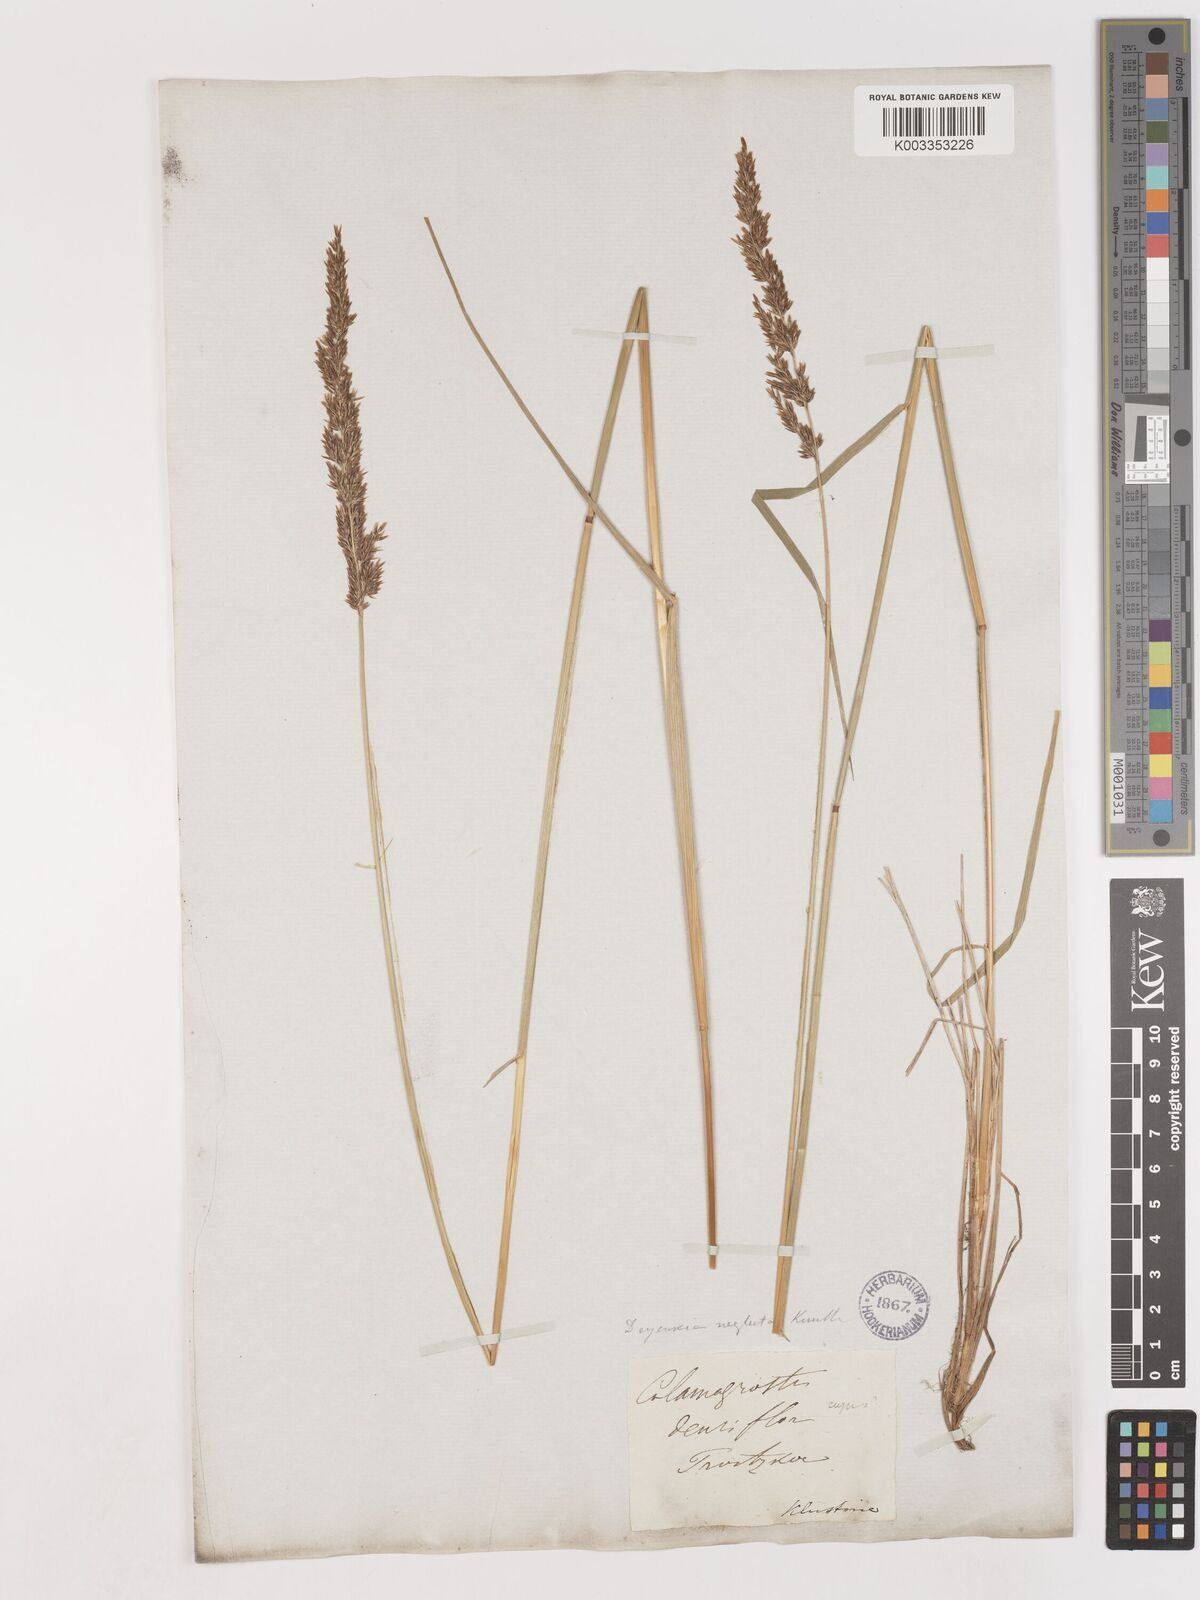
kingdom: Plantae
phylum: Tracheophyta
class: Liliopsida
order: Poales
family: Poaceae
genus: Cinnagrostis
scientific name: Cinnagrostis recta
